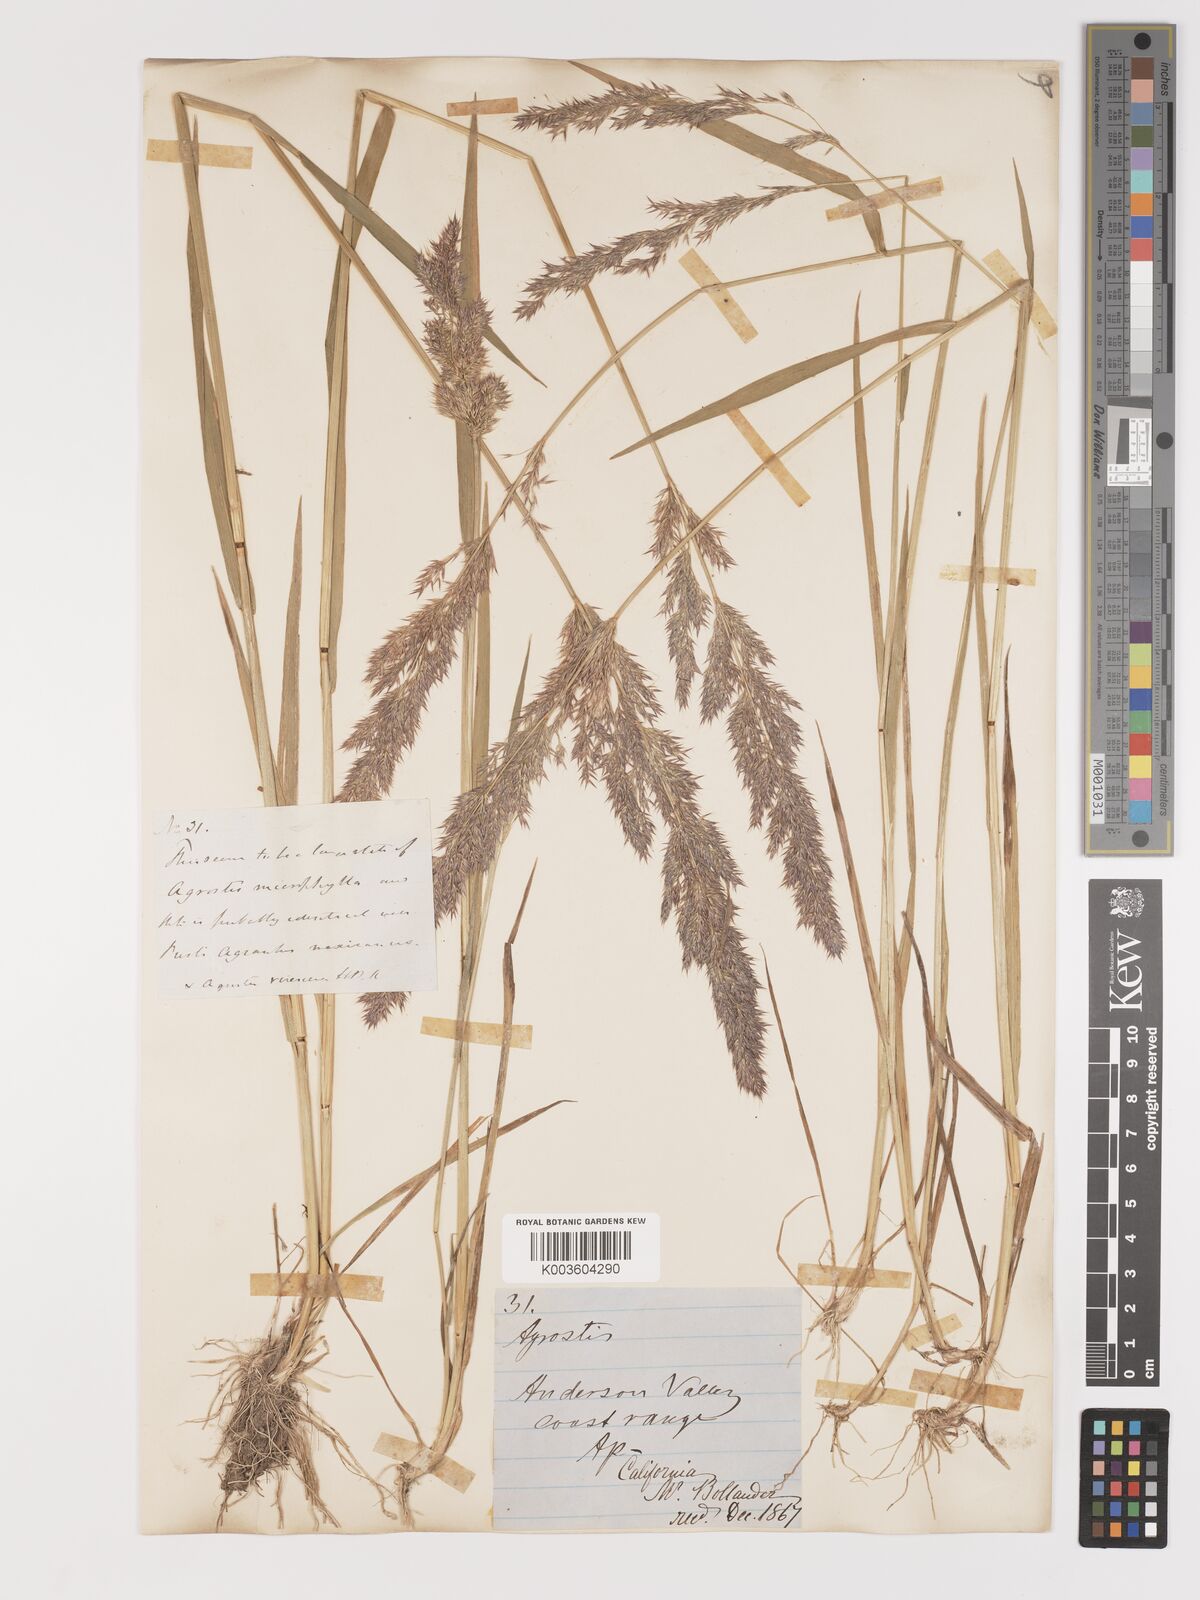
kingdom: Plantae
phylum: Tracheophyta
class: Liliopsida
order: Poales
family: Poaceae
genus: Agrostis
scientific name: Agrostis exarata
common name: Spike bent
